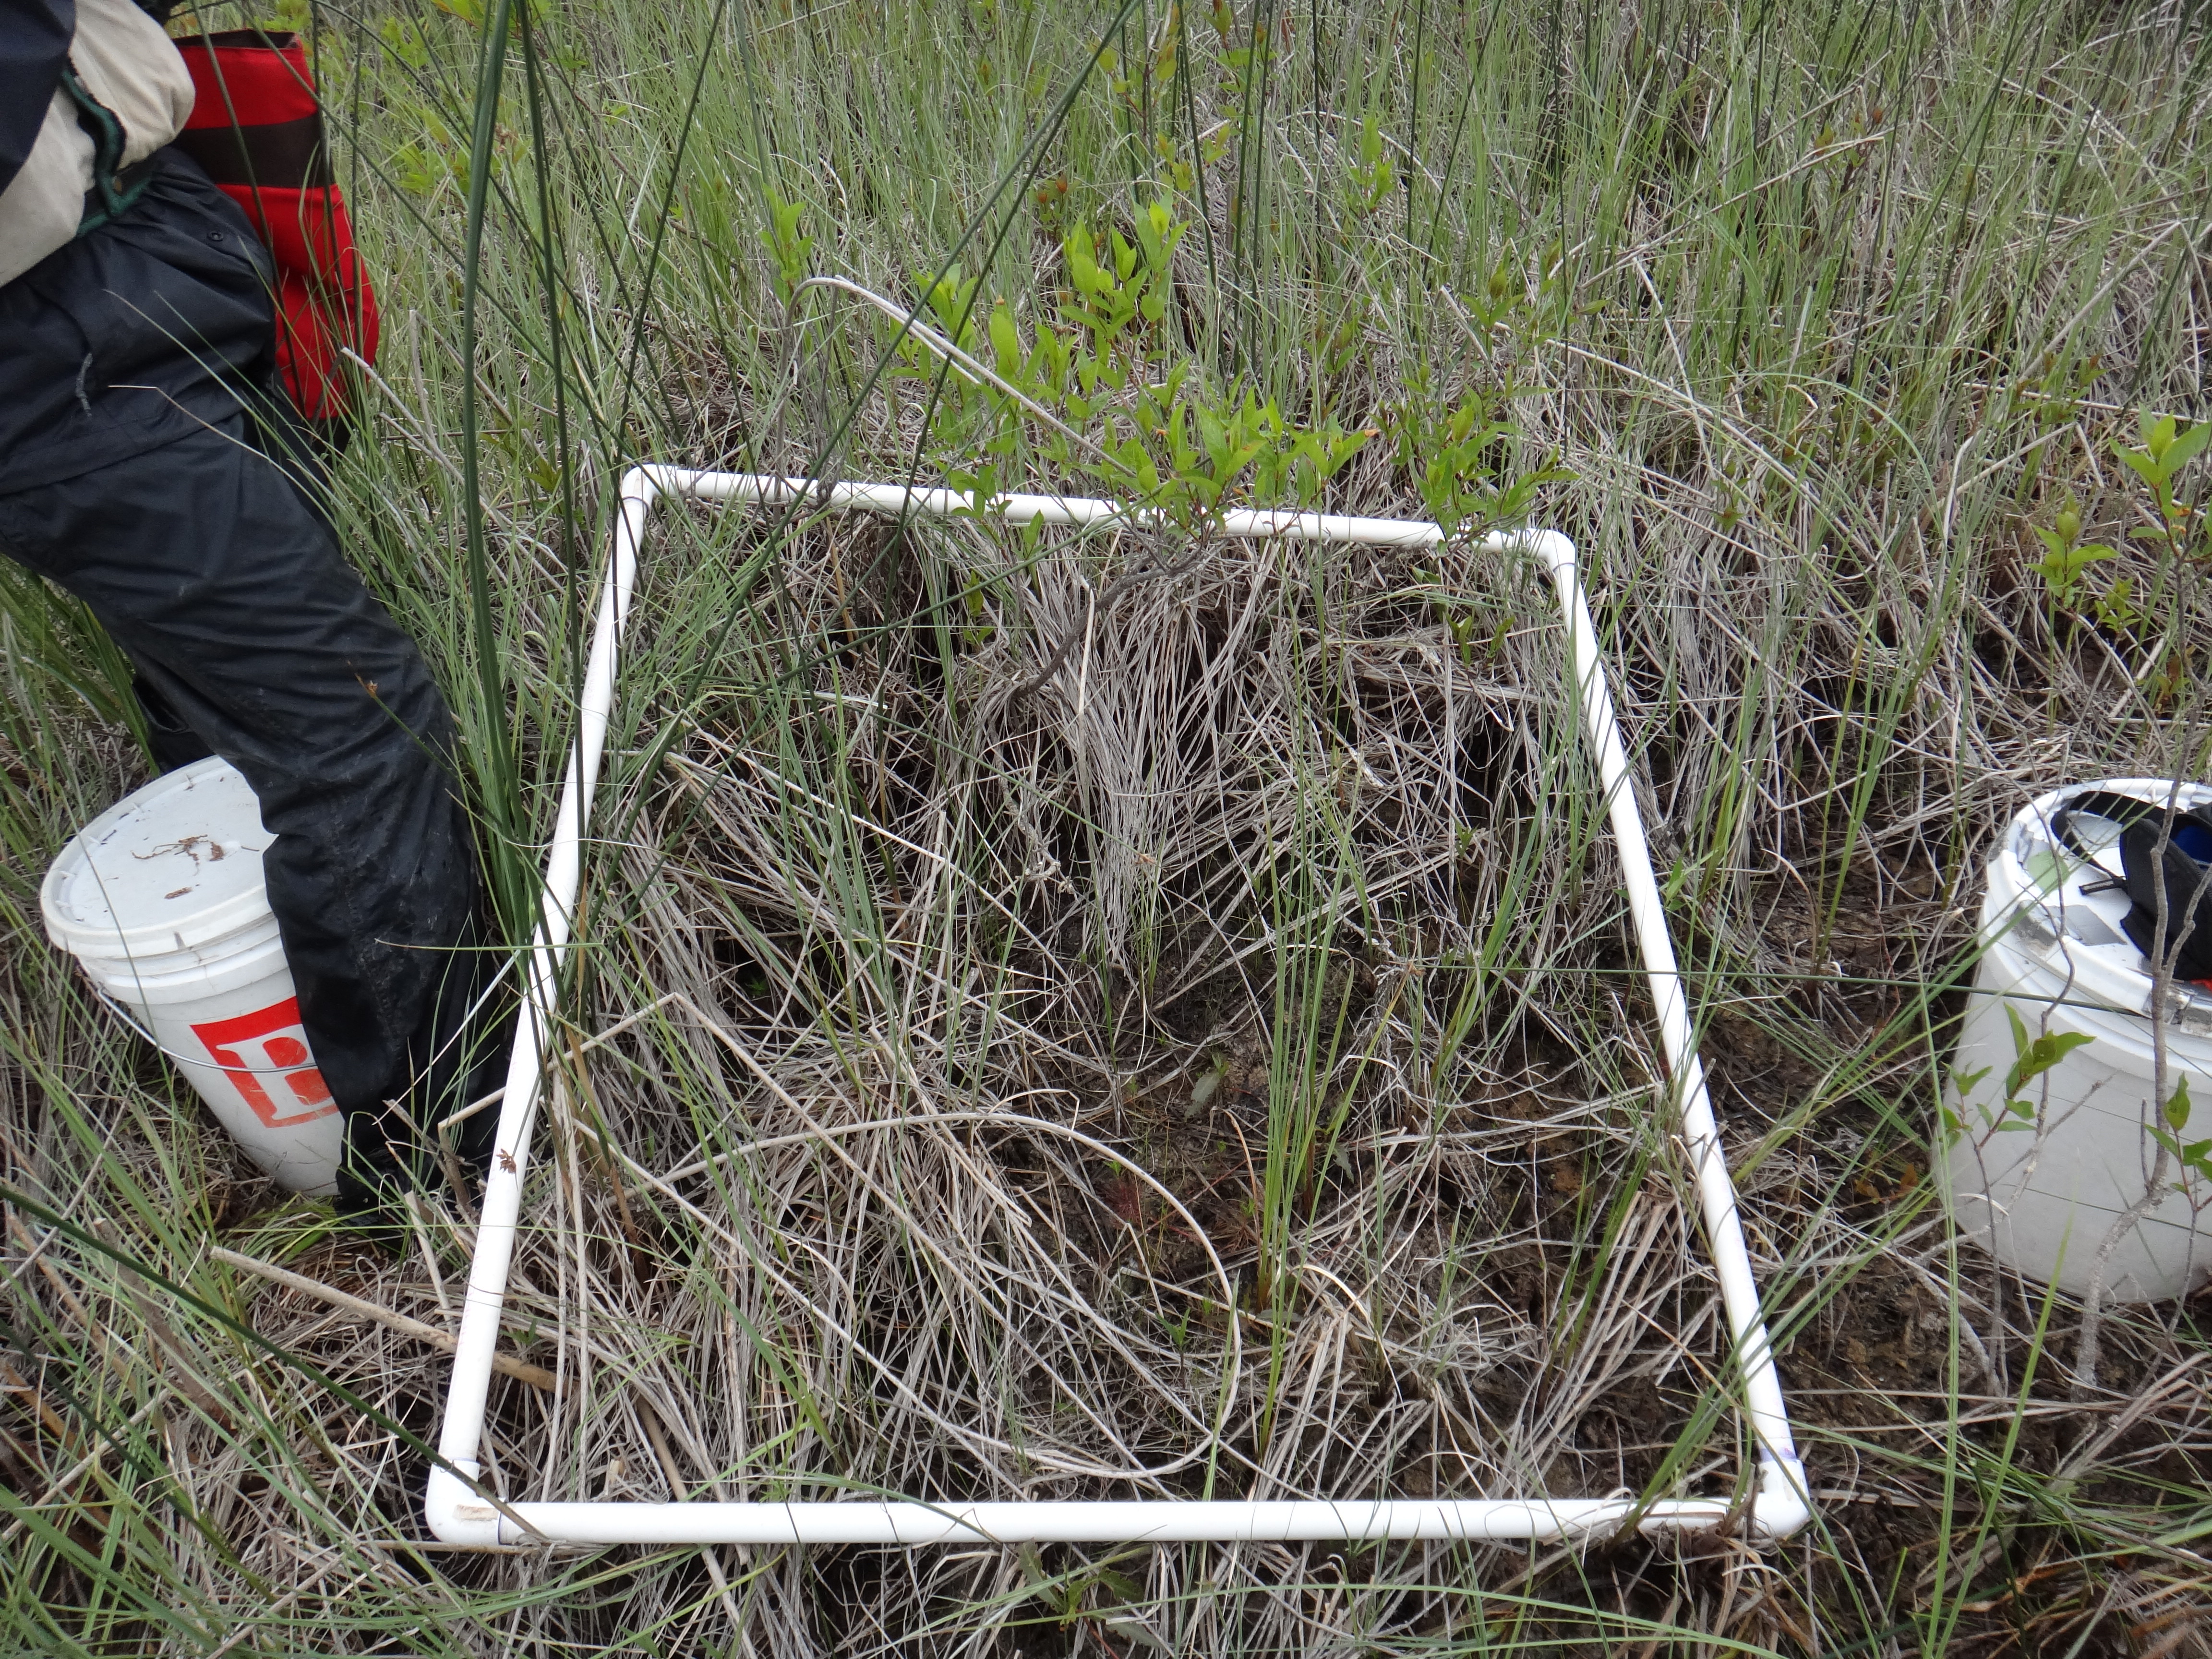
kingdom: Plantae
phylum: Tracheophyta
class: Magnoliopsida
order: Saxifragales
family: Haloragaceae
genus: Proserpinaca
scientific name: Proserpinaca palustris
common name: Marsh mermaidweed
